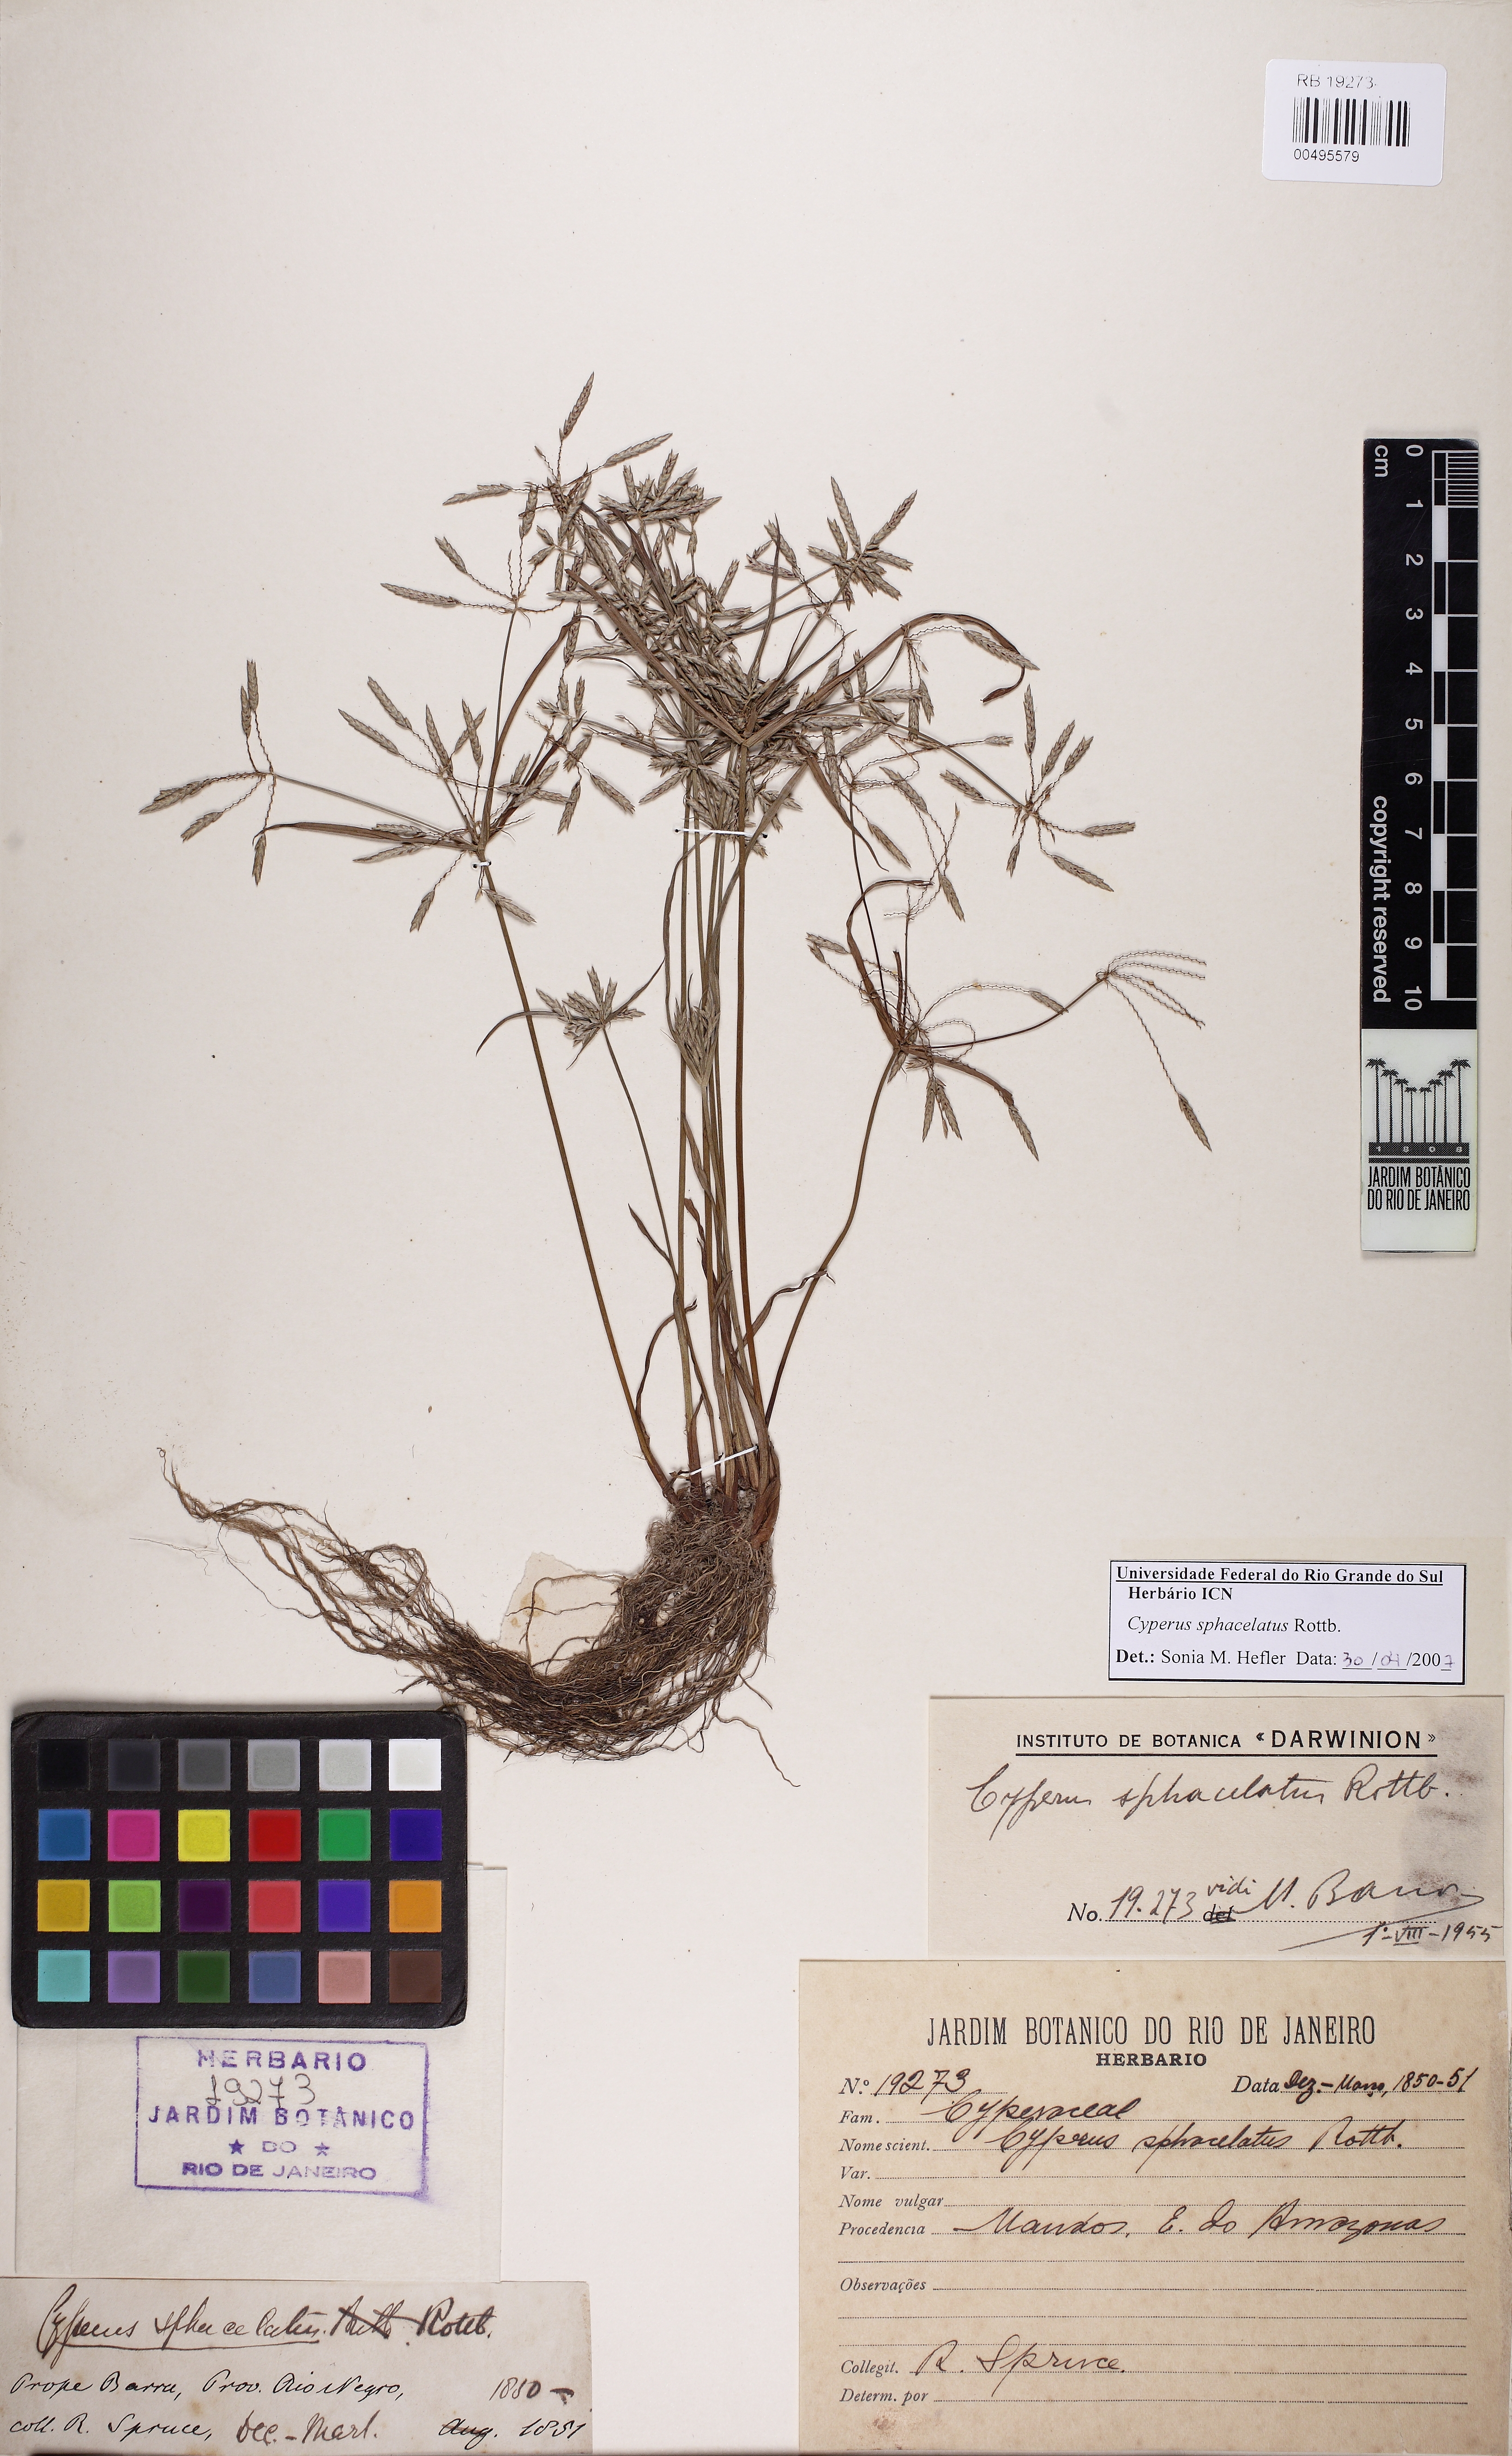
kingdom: Plantae
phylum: Tracheophyta
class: Liliopsida
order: Poales
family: Cyperaceae
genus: Cyperus
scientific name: Cyperus sphacelatus
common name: Roadside flatsedge
